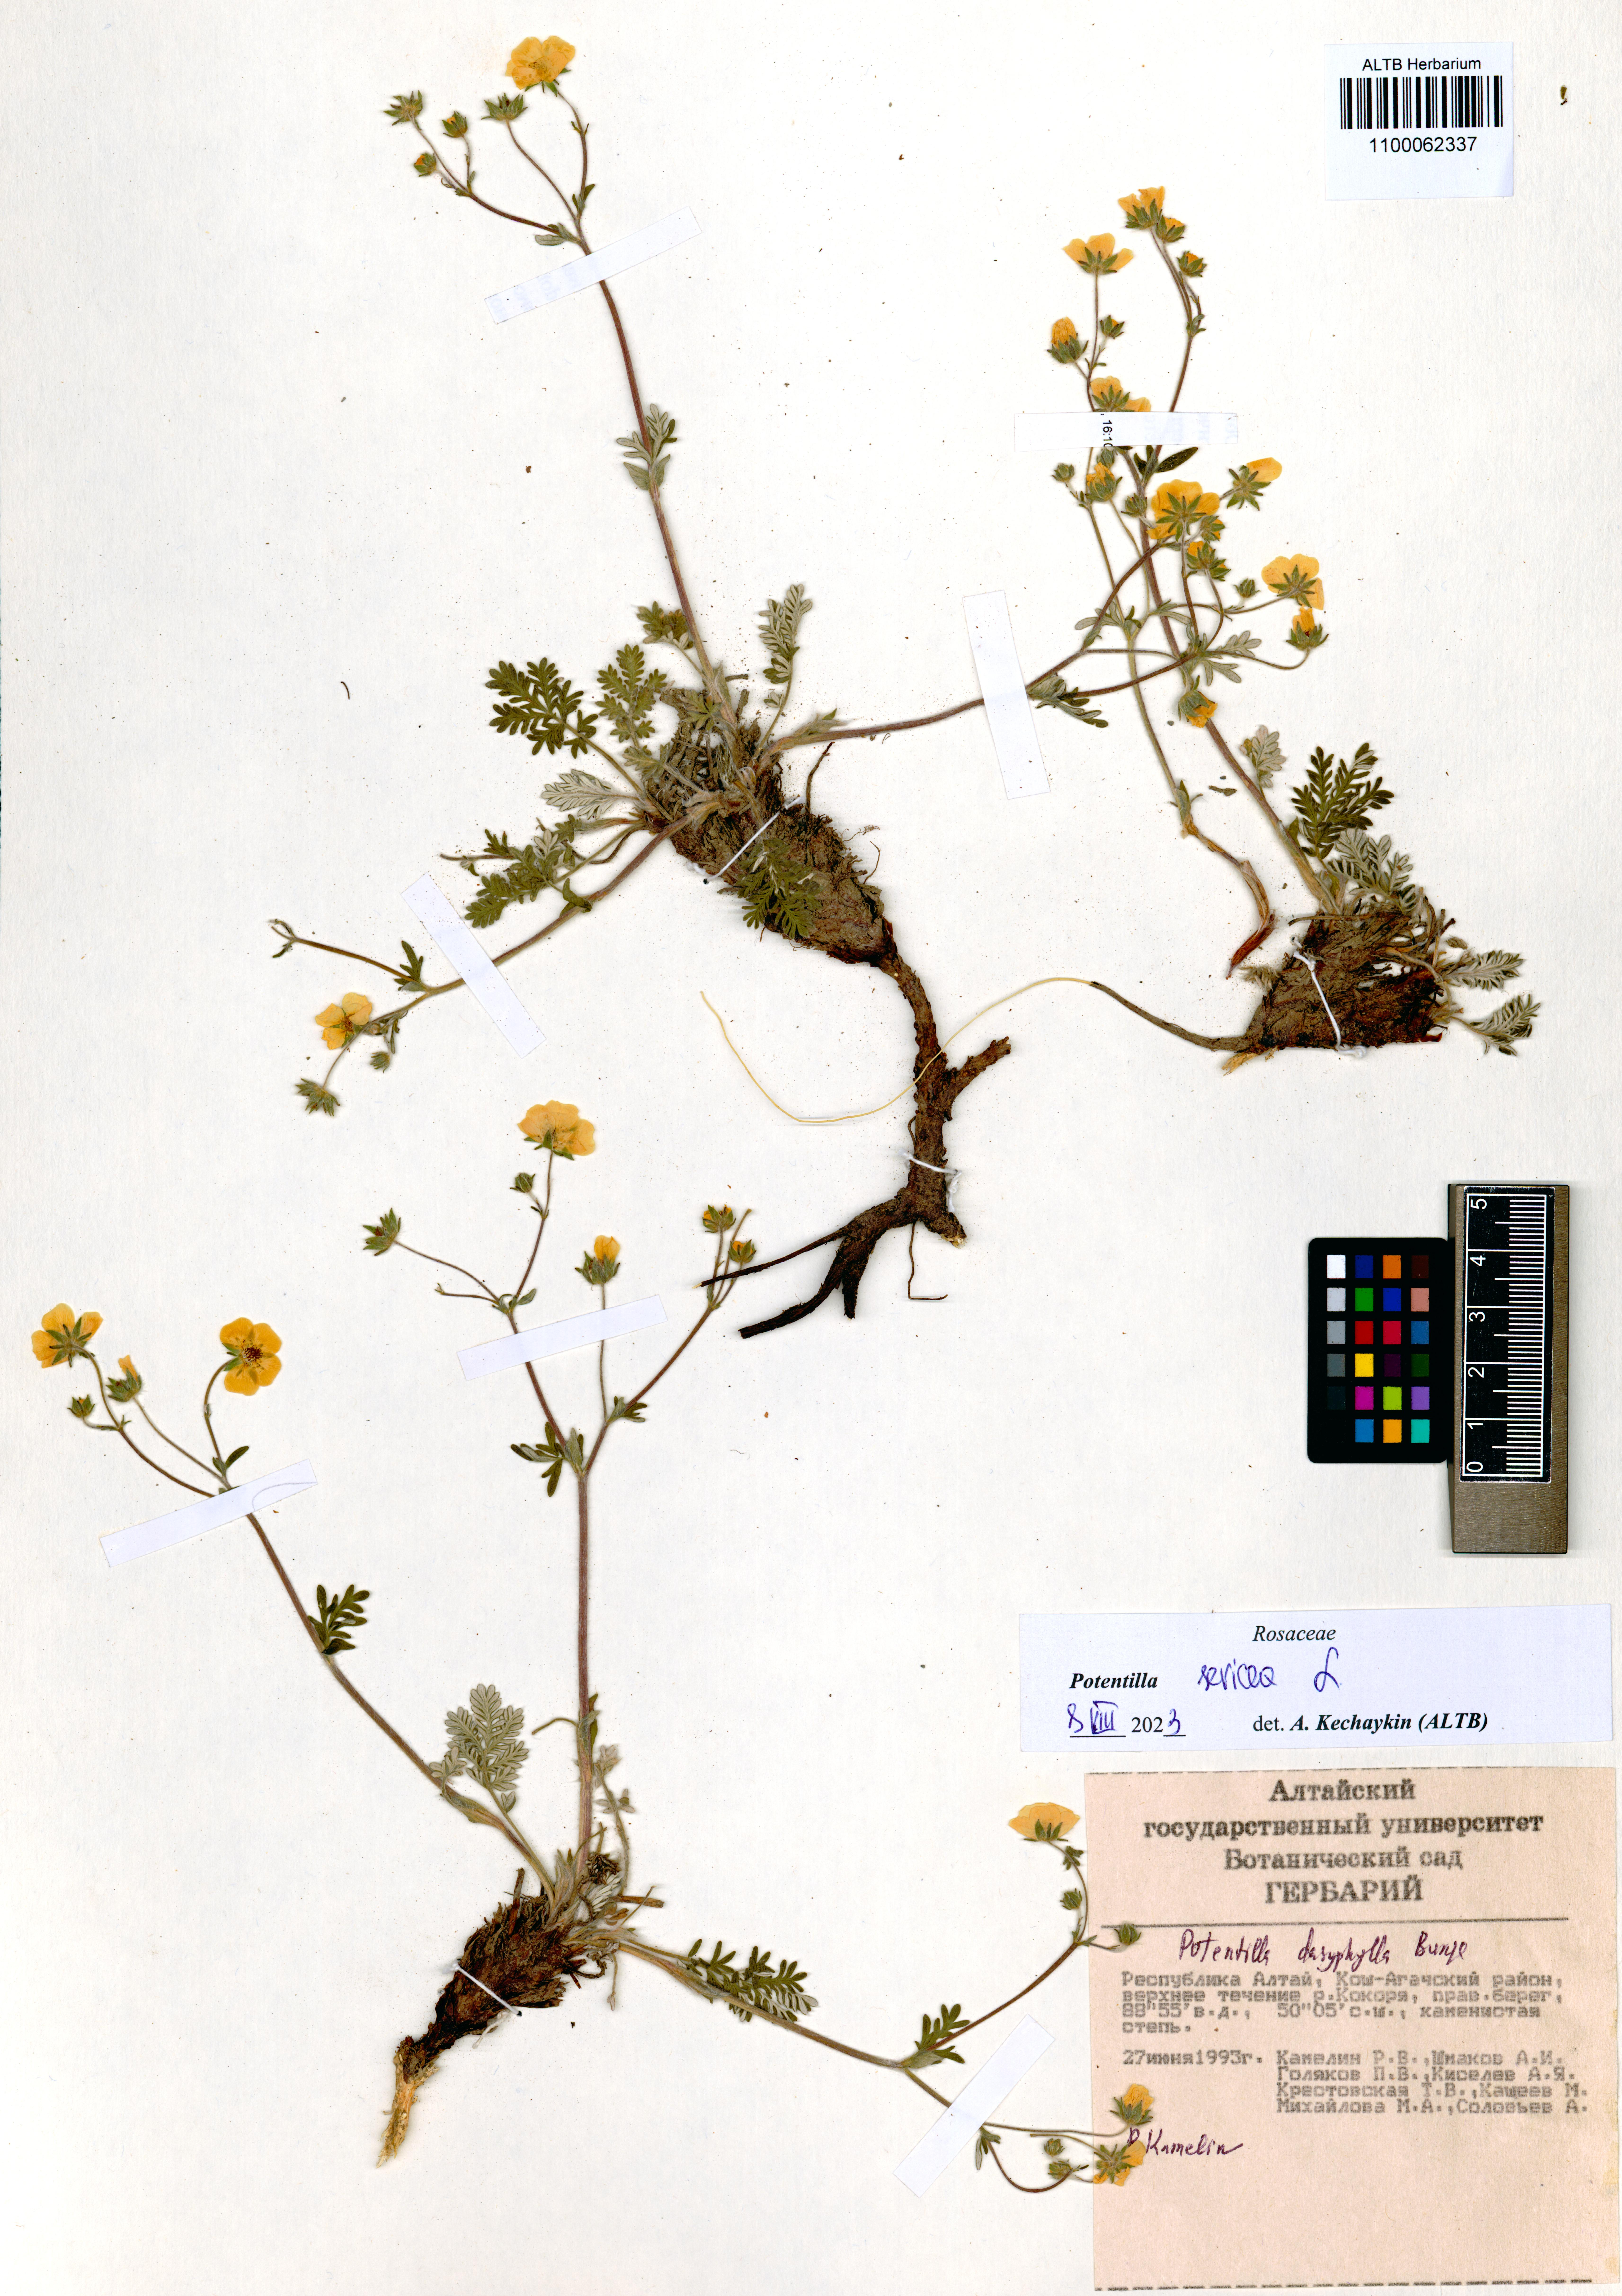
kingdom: Plantae
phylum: Tracheophyta
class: Magnoliopsida
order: Rosales
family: Rosaceae
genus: Potentilla
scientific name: Potentilla sericea
